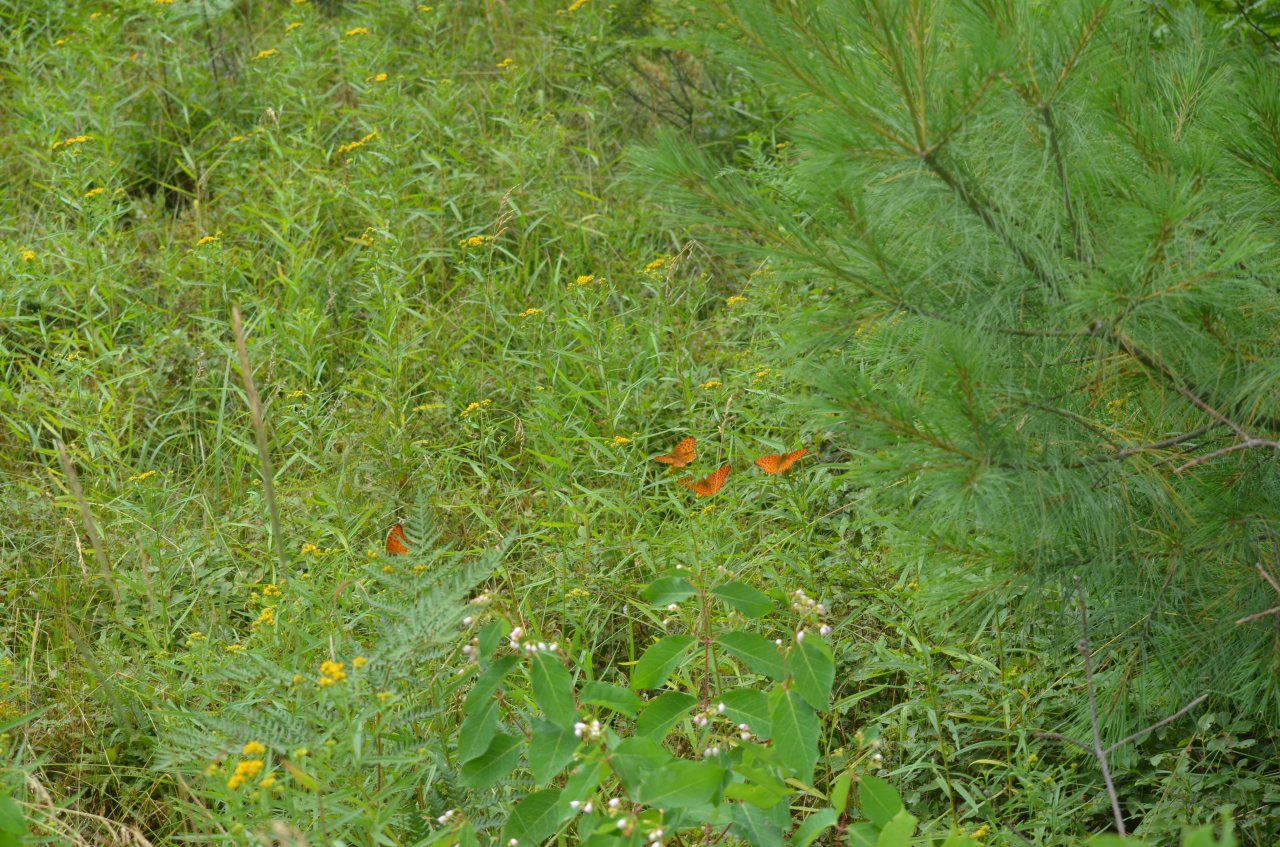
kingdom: Animalia
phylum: Arthropoda
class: Insecta
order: Lepidoptera
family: Nymphalidae
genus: Speyeria
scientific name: Speyeria aphrodite
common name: Aphrodite Fritillary
